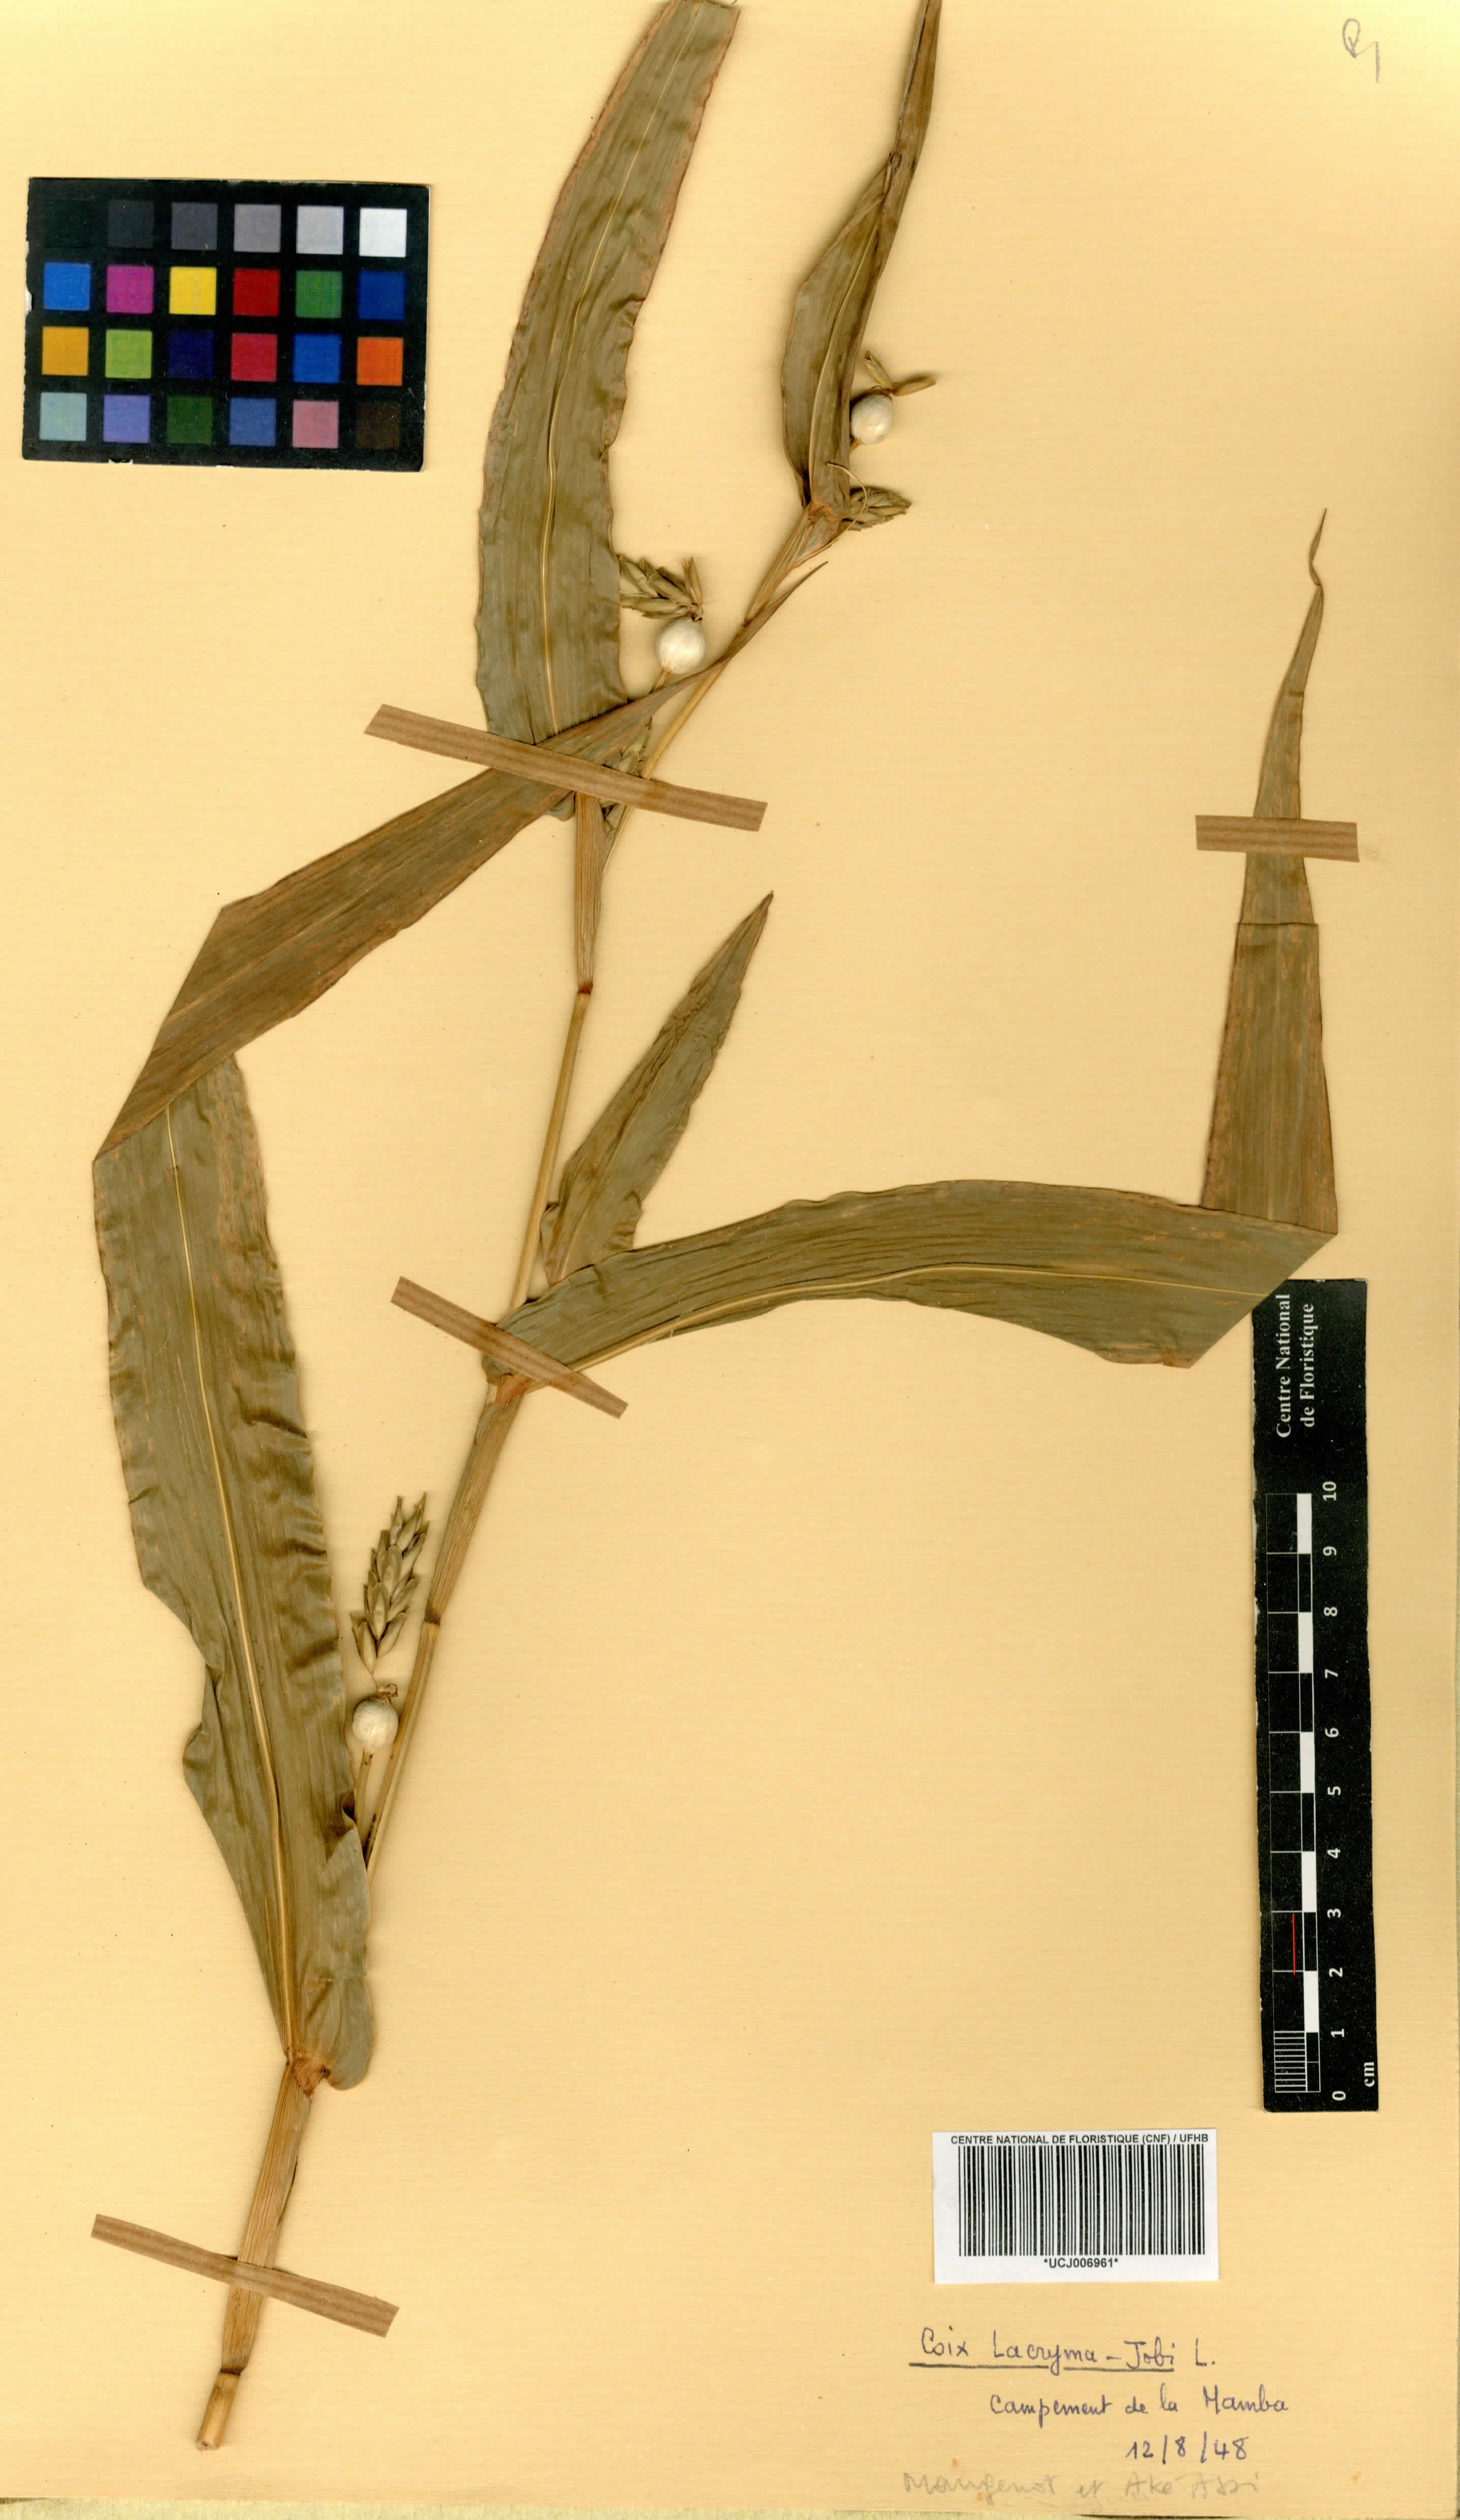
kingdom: Plantae
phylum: Tracheophyta
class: Liliopsida
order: Poales
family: Poaceae
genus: Coix
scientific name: Coix lacryma-jobi
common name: Job's tears
